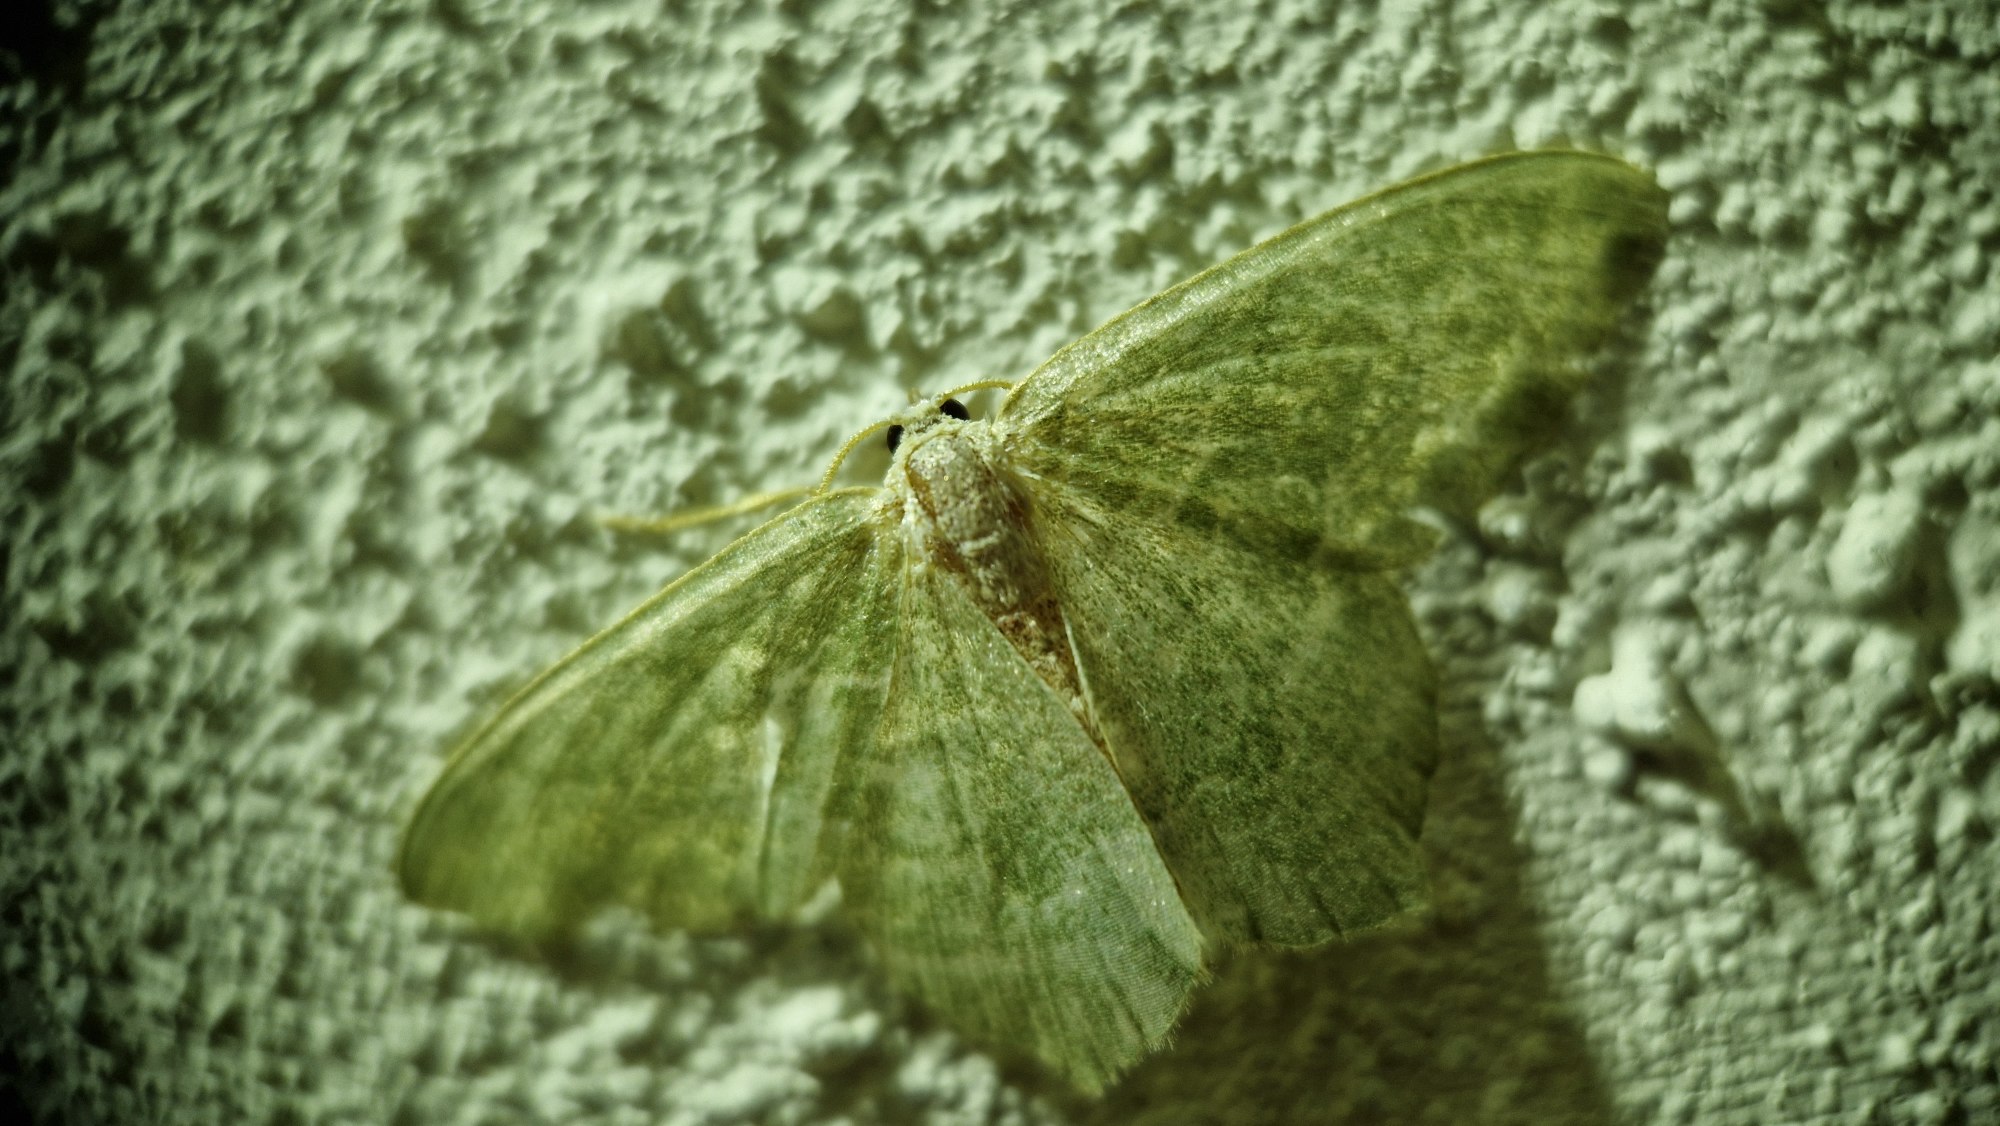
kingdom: Animalia
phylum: Arthropoda
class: Insecta
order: Lepidoptera
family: Geometridae
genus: Hemithea
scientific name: Hemithea aestivaria
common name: Lundmåler
